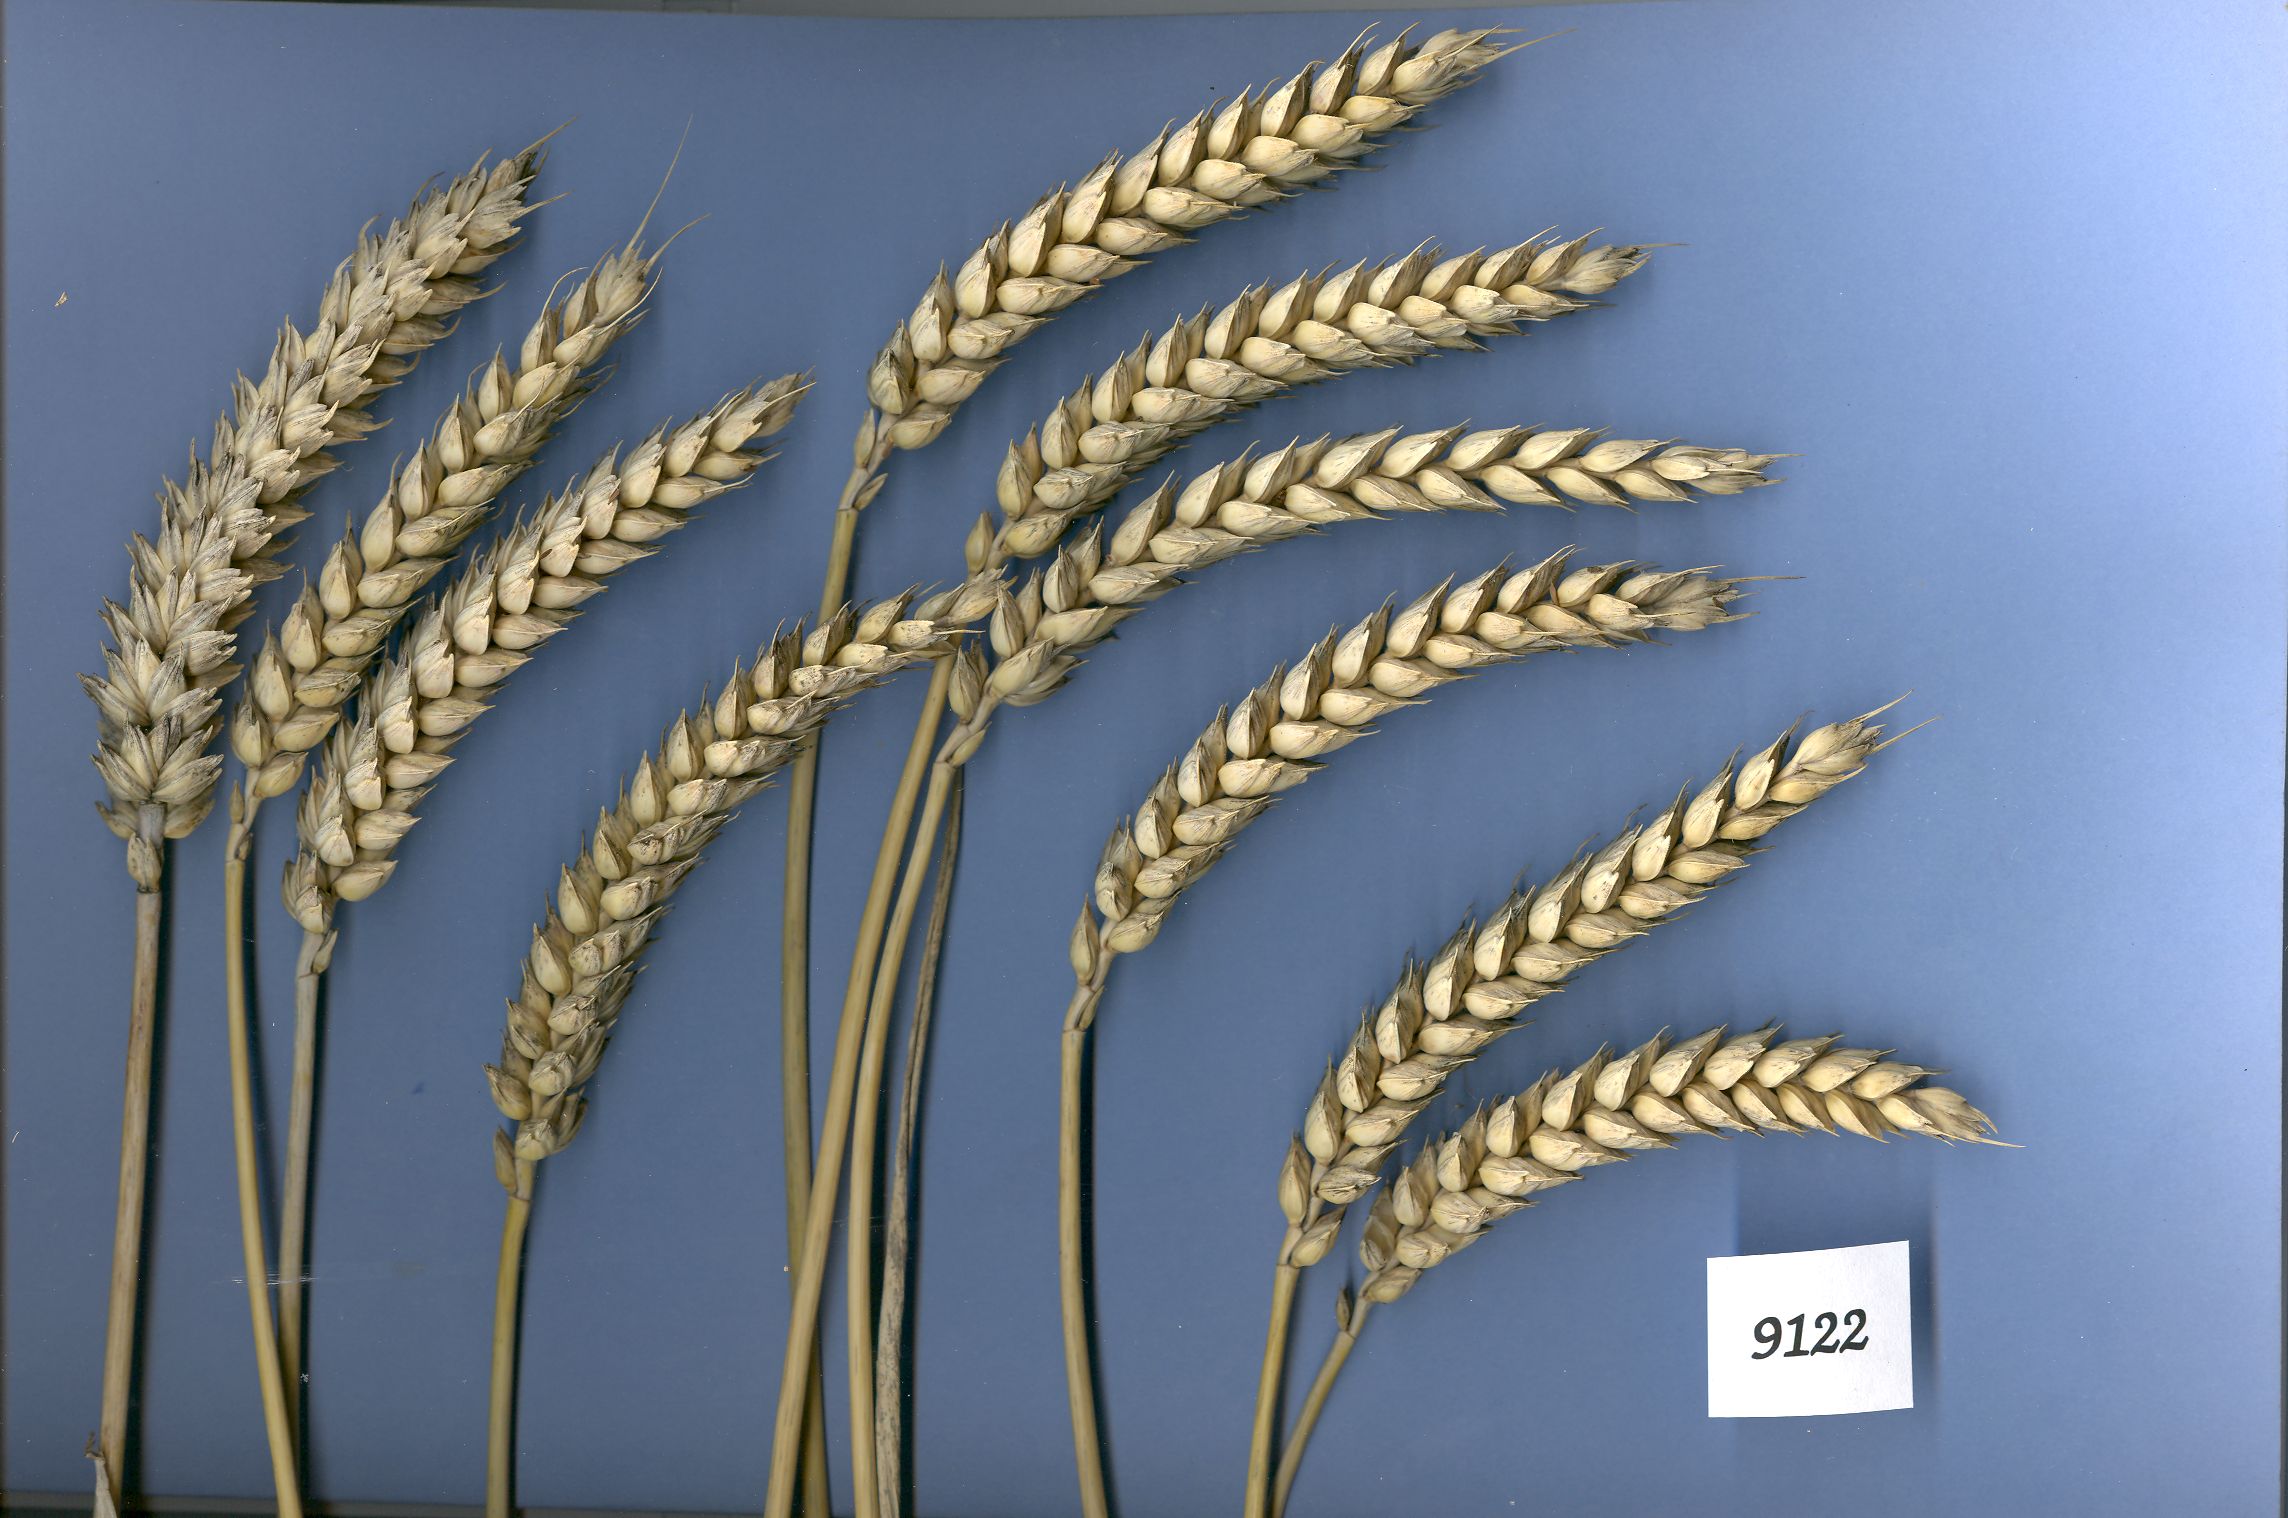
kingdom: Plantae
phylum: Tracheophyta
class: Liliopsida
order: Poales
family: Poaceae
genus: Triticum
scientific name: Triticum aestivum
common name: Common wheat
